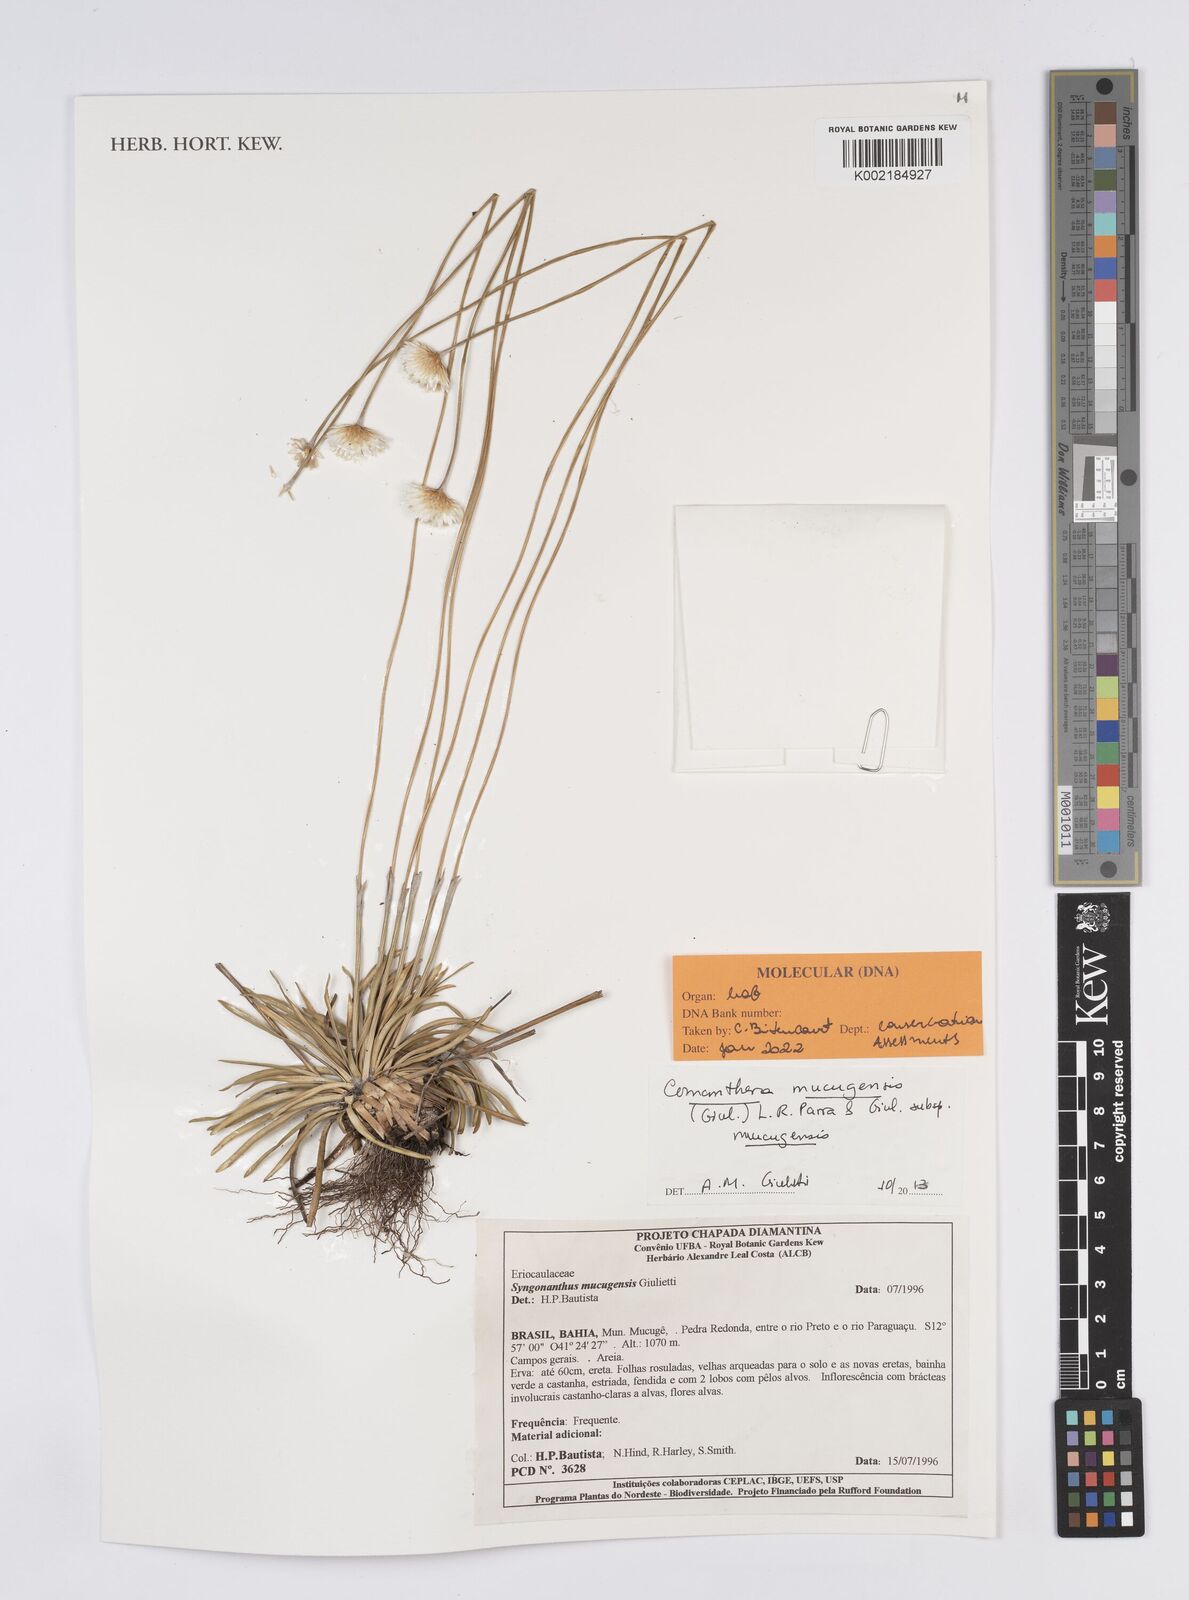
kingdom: Plantae
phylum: Tracheophyta
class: Liliopsida
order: Poales
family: Eriocaulaceae
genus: Comanthera
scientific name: Comanthera mucugensis
